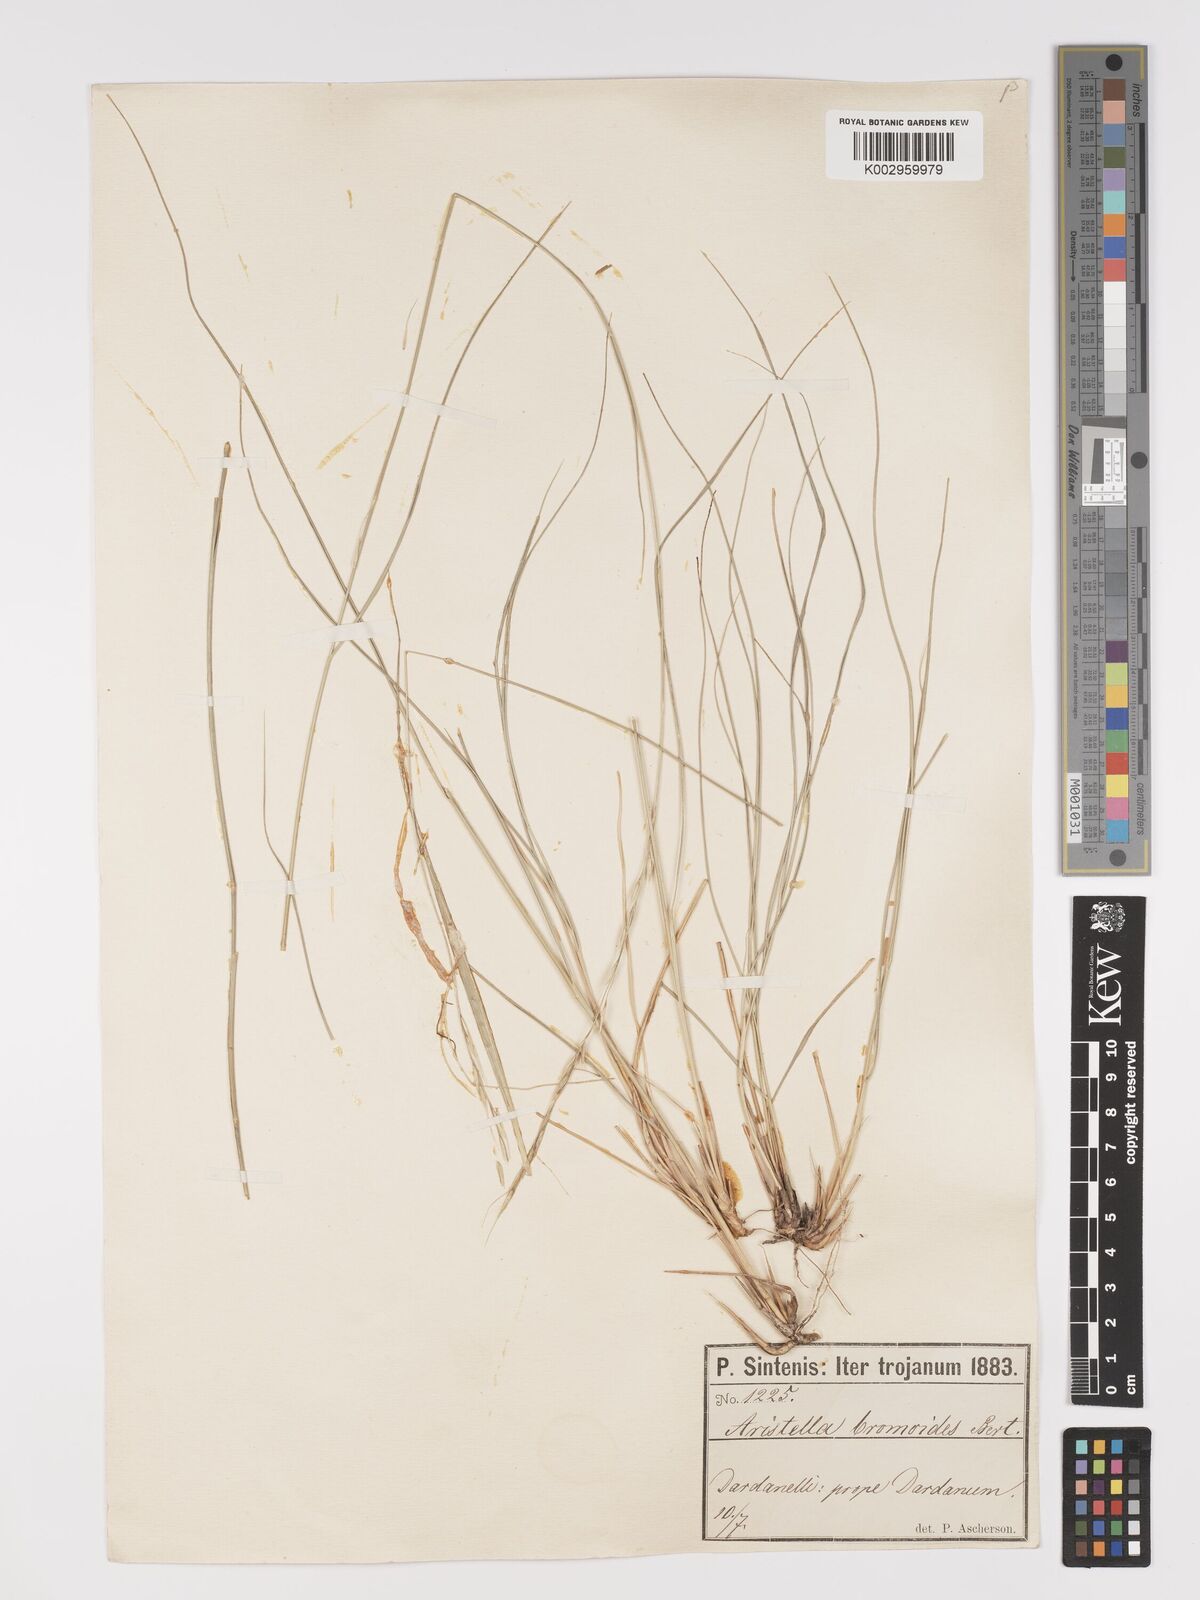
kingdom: Plantae
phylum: Tracheophyta
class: Liliopsida
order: Poales
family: Poaceae
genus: Achnatherum
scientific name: Achnatherum bromoides
